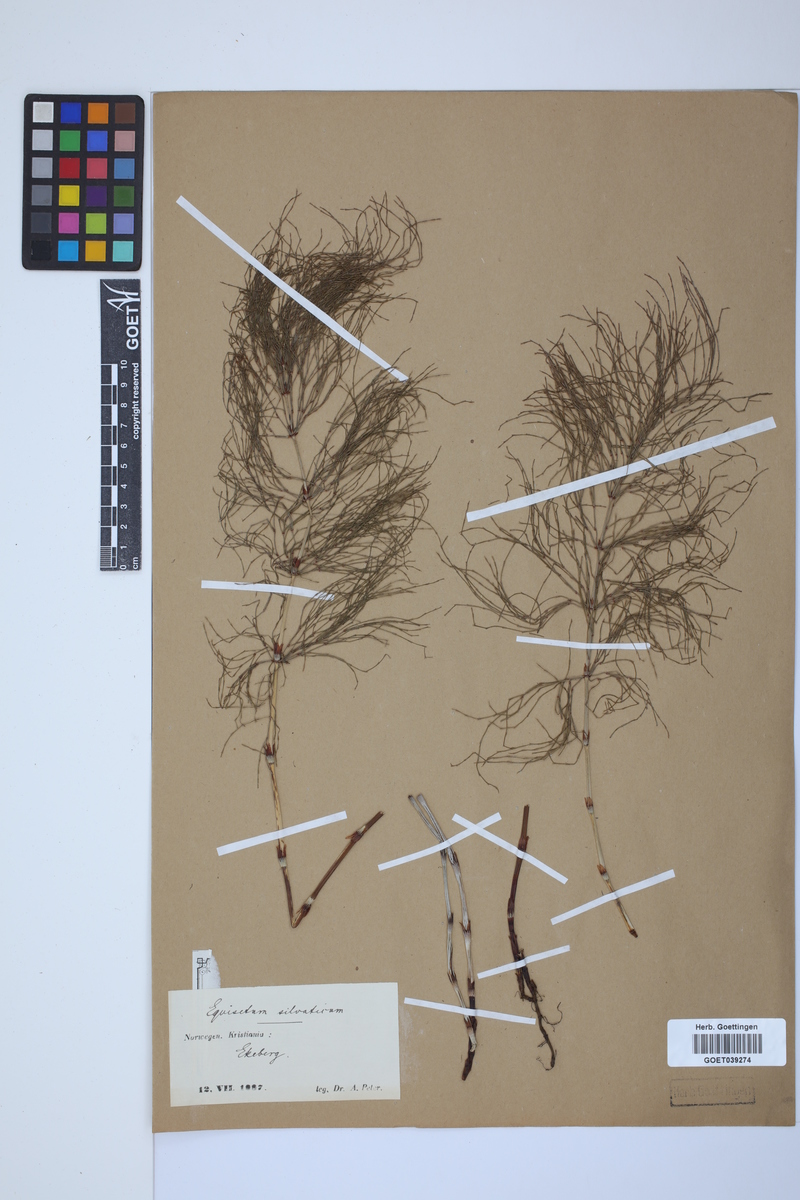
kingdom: Plantae
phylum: Tracheophyta
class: Polypodiopsida
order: Equisetales
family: Equisetaceae
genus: Equisetum
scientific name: Equisetum sylvaticum
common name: Wood horsetail
